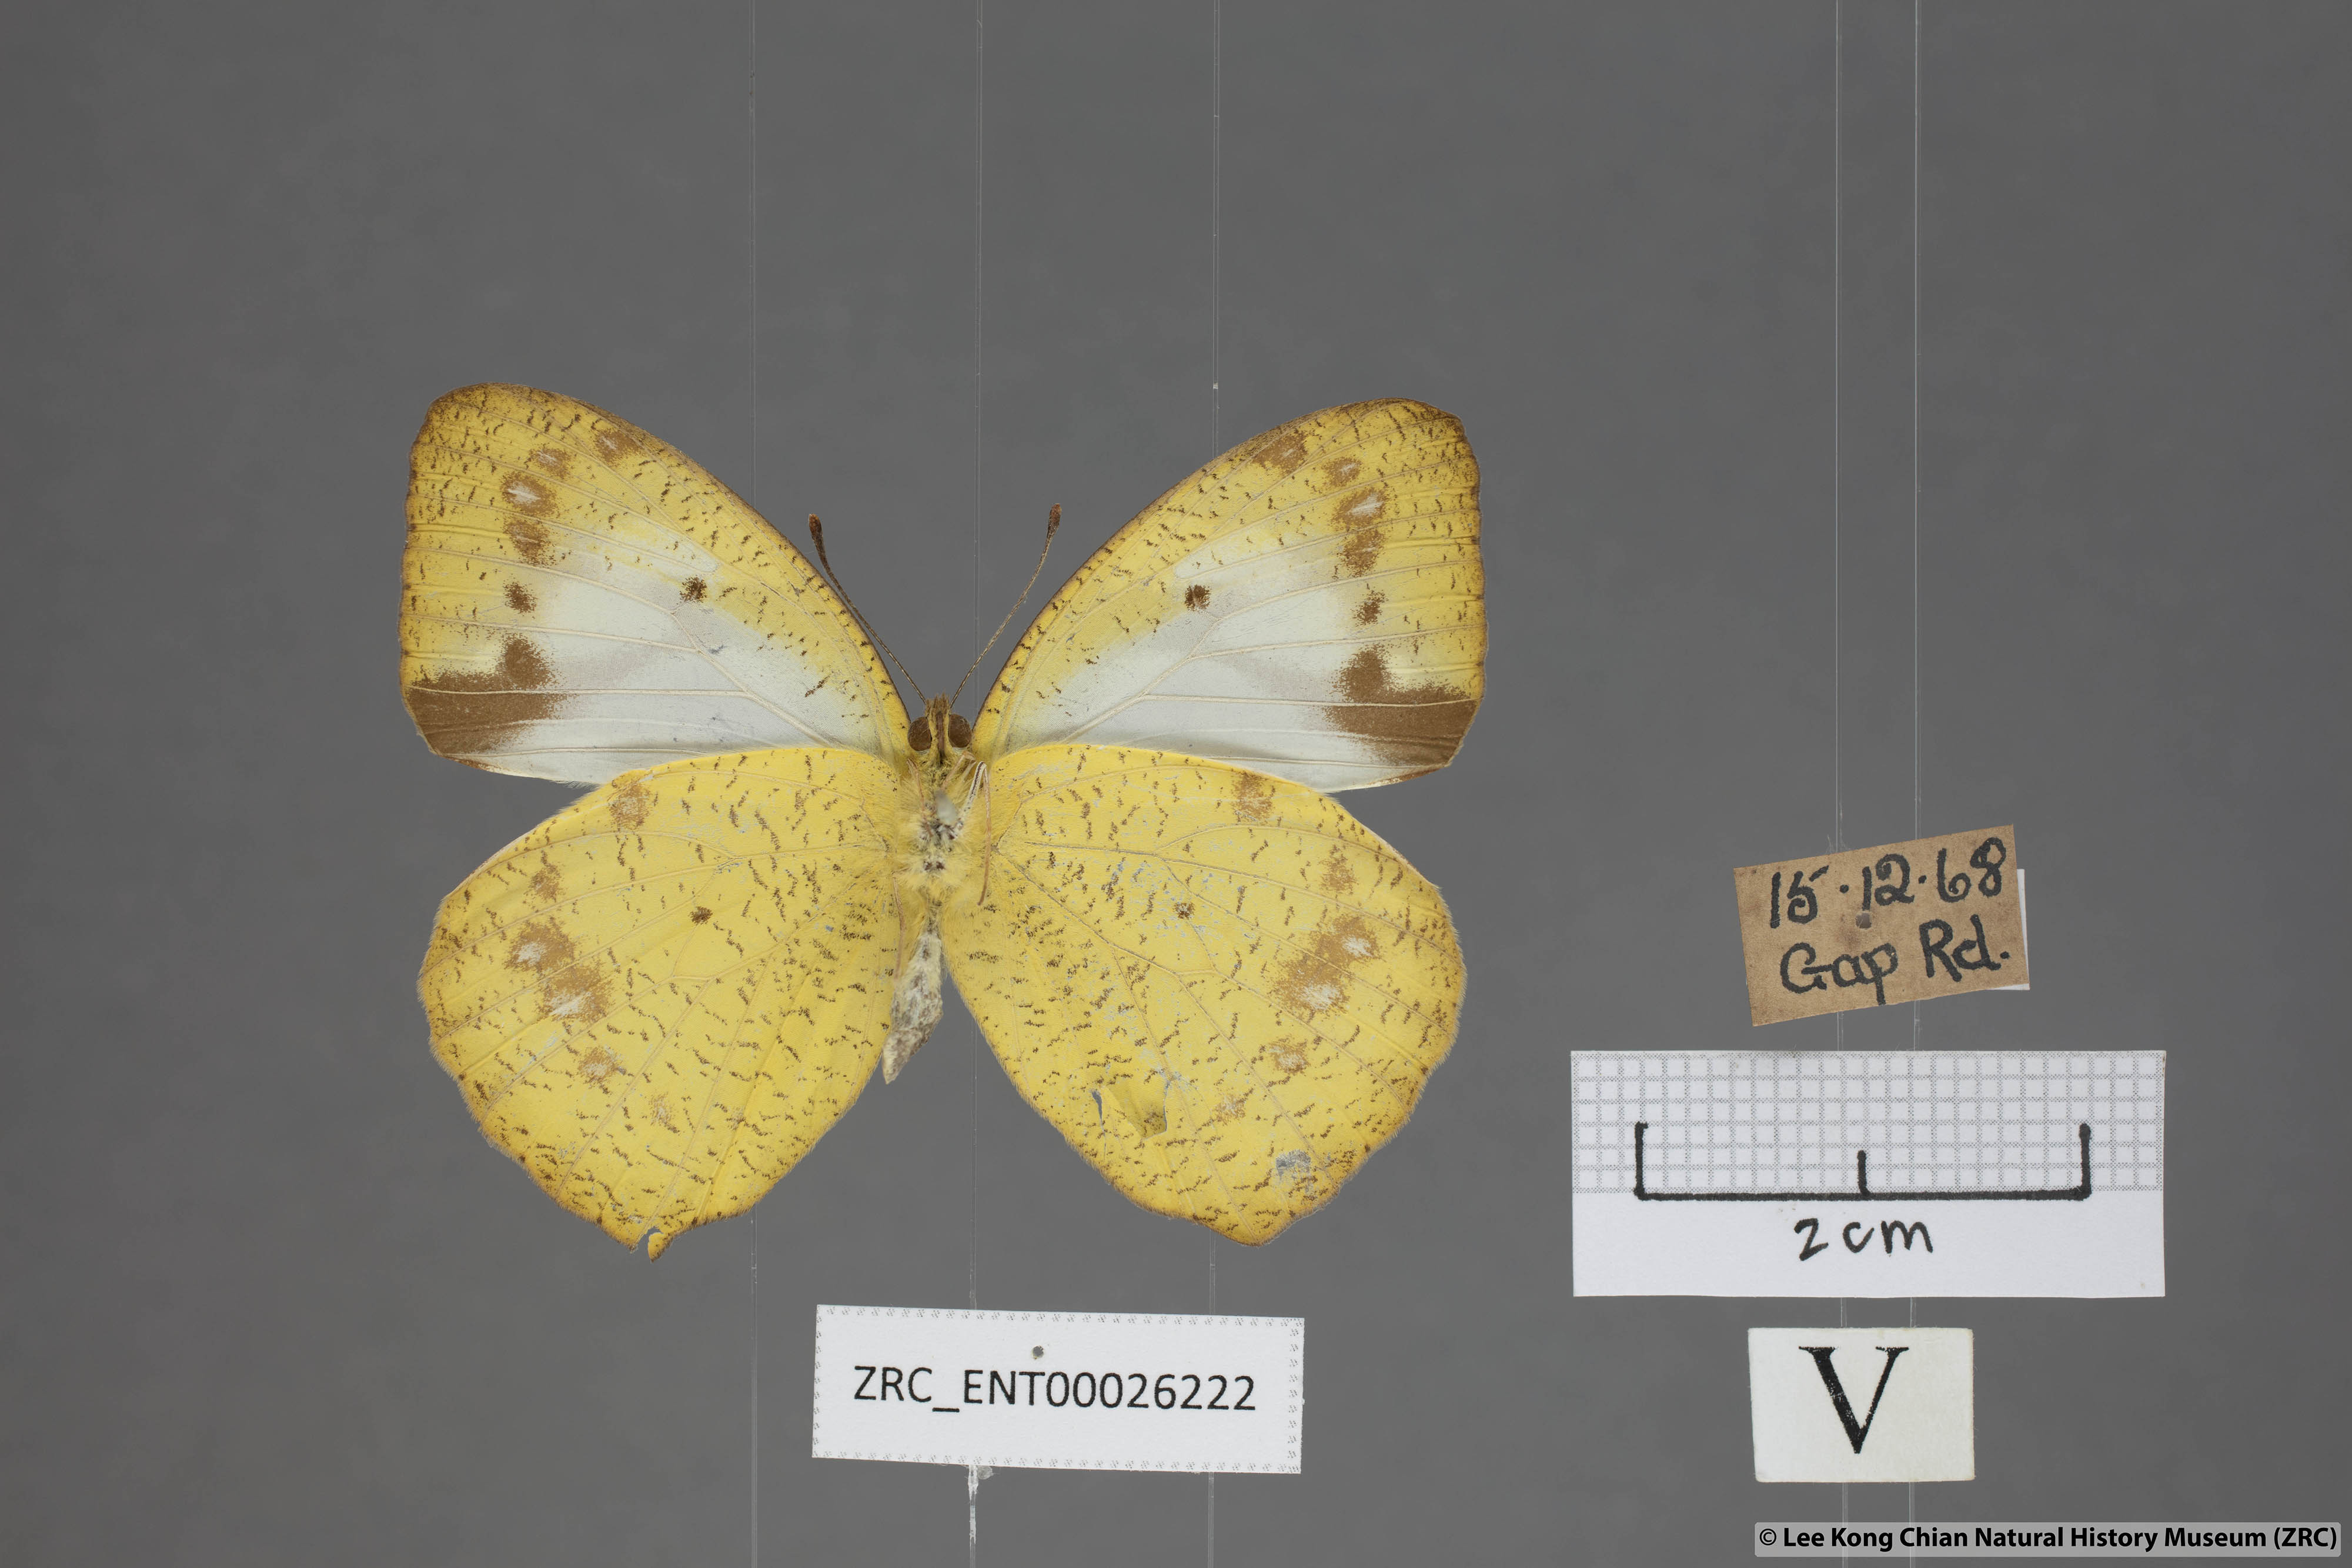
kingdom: Animalia
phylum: Arthropoda
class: Insecta
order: Lepidoptera
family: Pieridae
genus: Ixias
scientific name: Ixias pyrene
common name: Yellow orange tip
